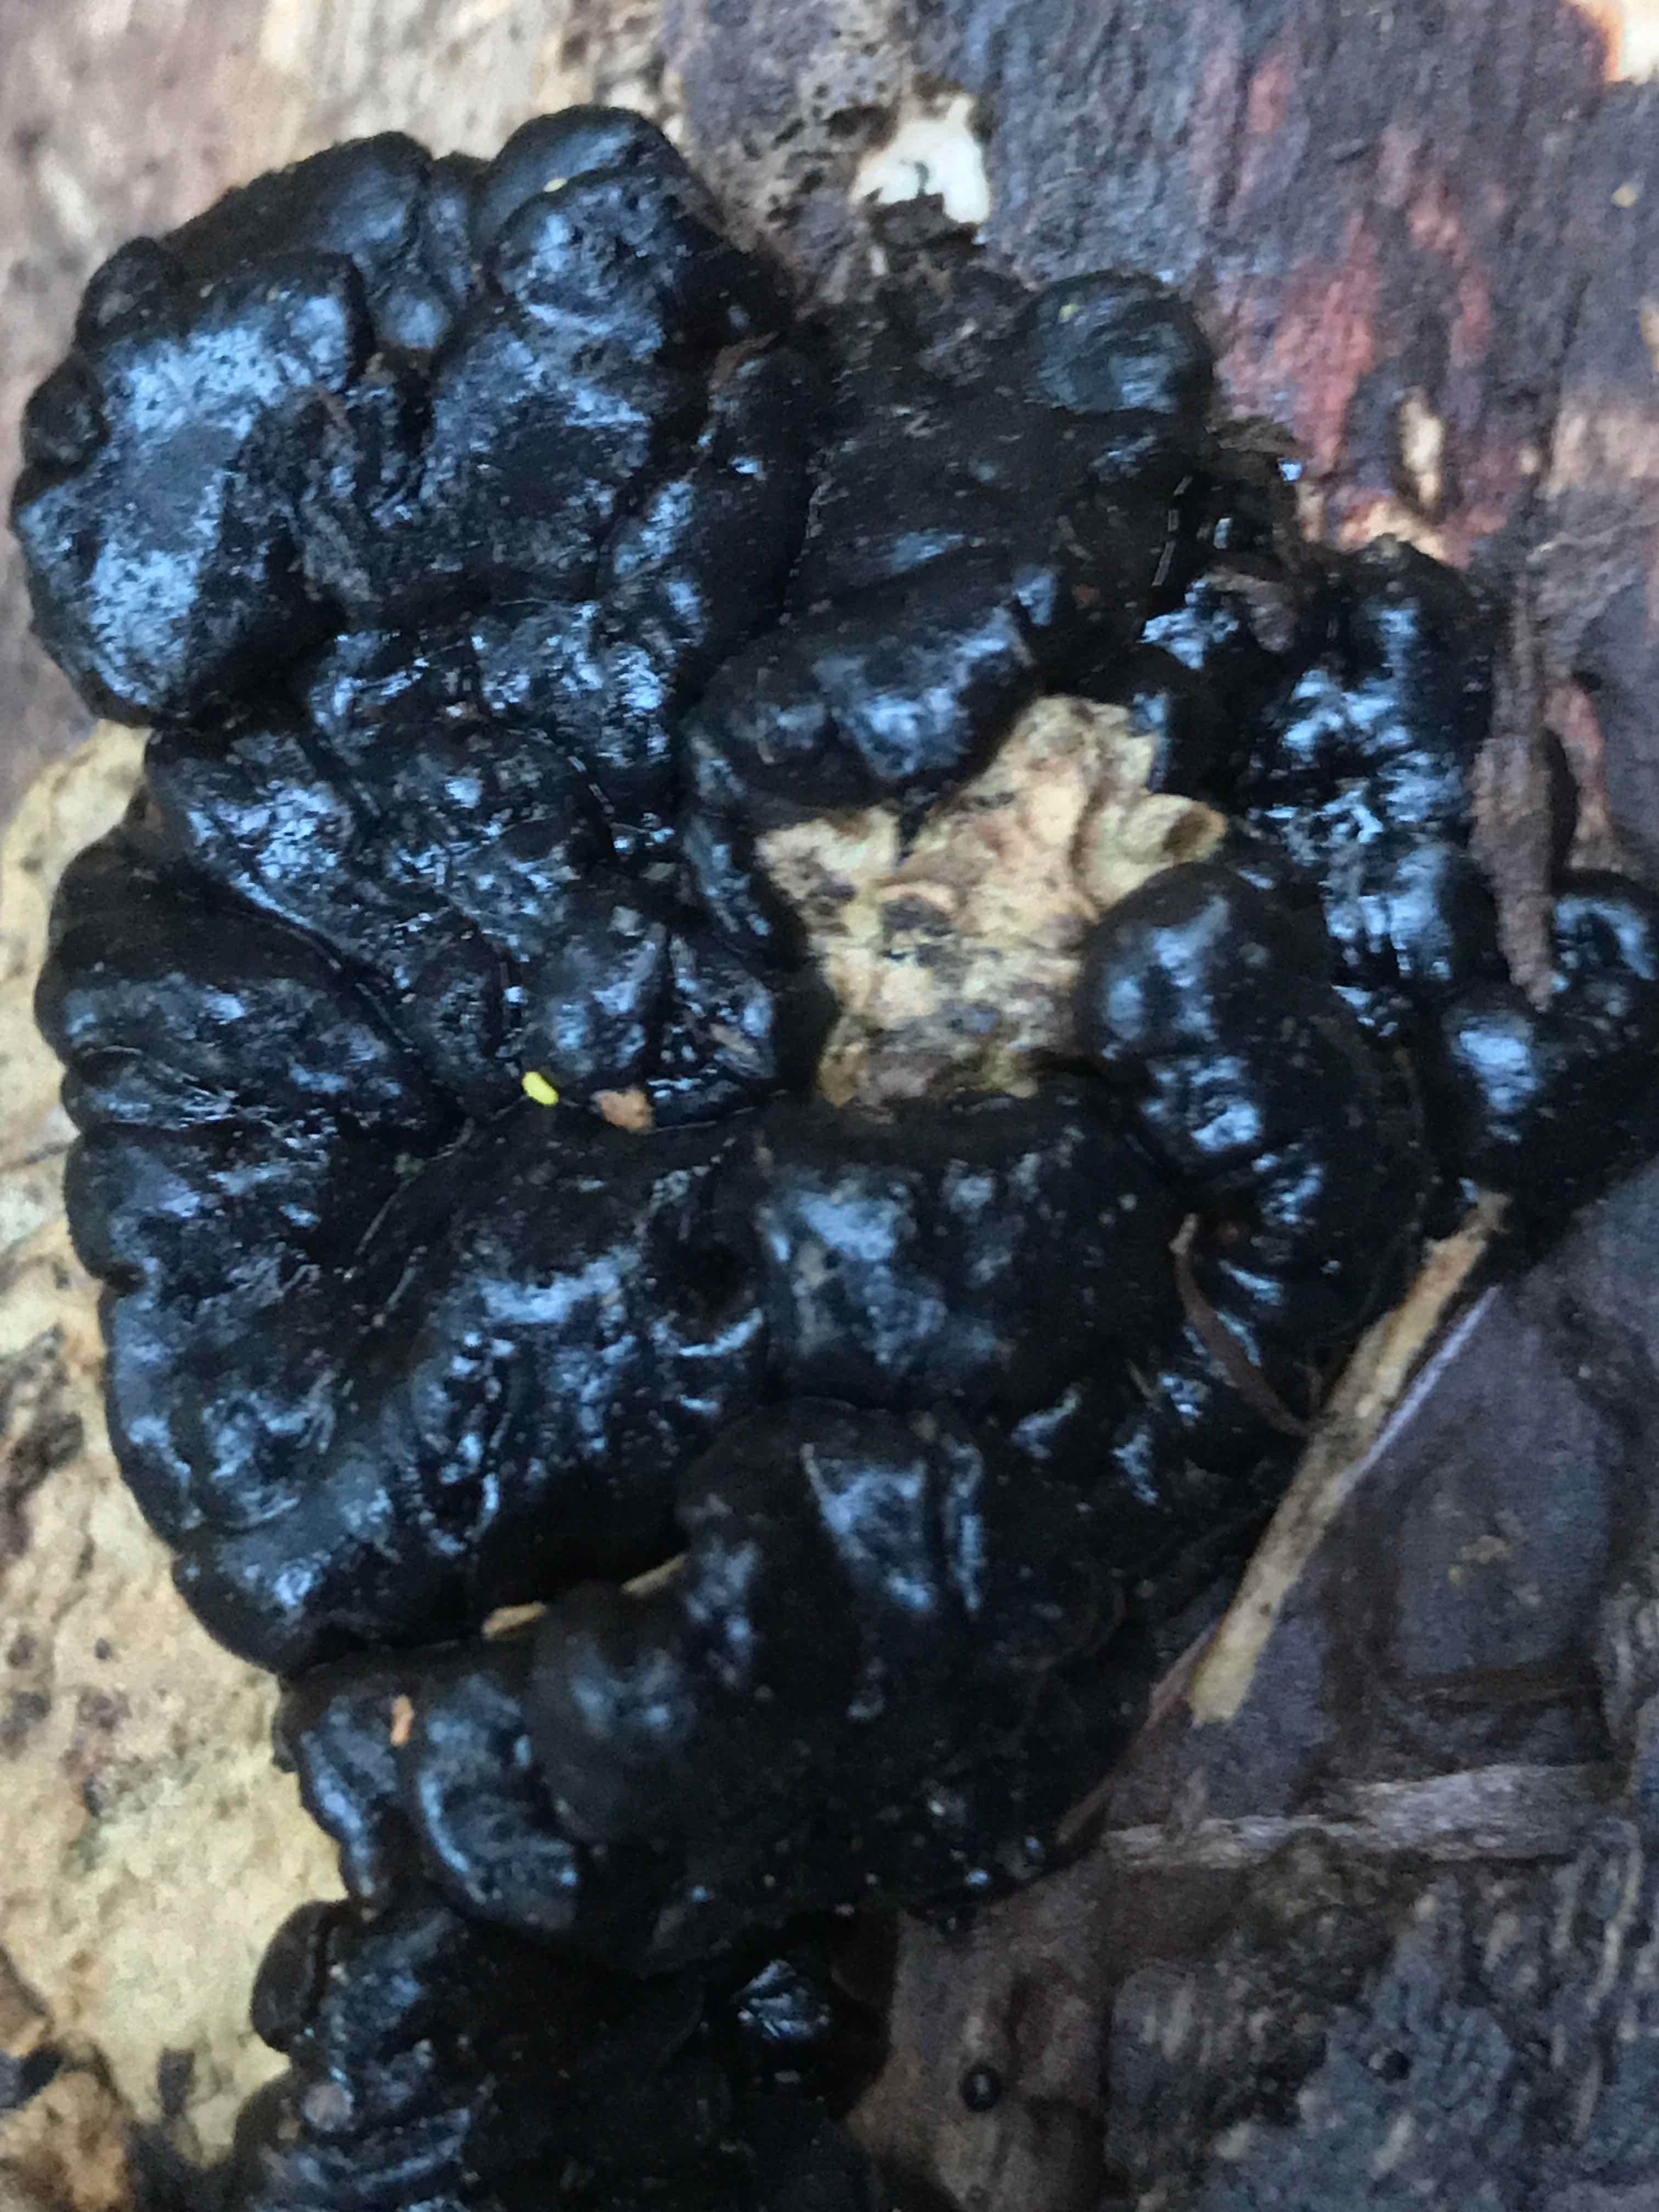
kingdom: Fungi
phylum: Basidiomycota
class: Agaricomycetes
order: Auriculariales
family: Auriculariaceae
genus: Exidia
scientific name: Exidia nigricans
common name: almindelig bævretop
